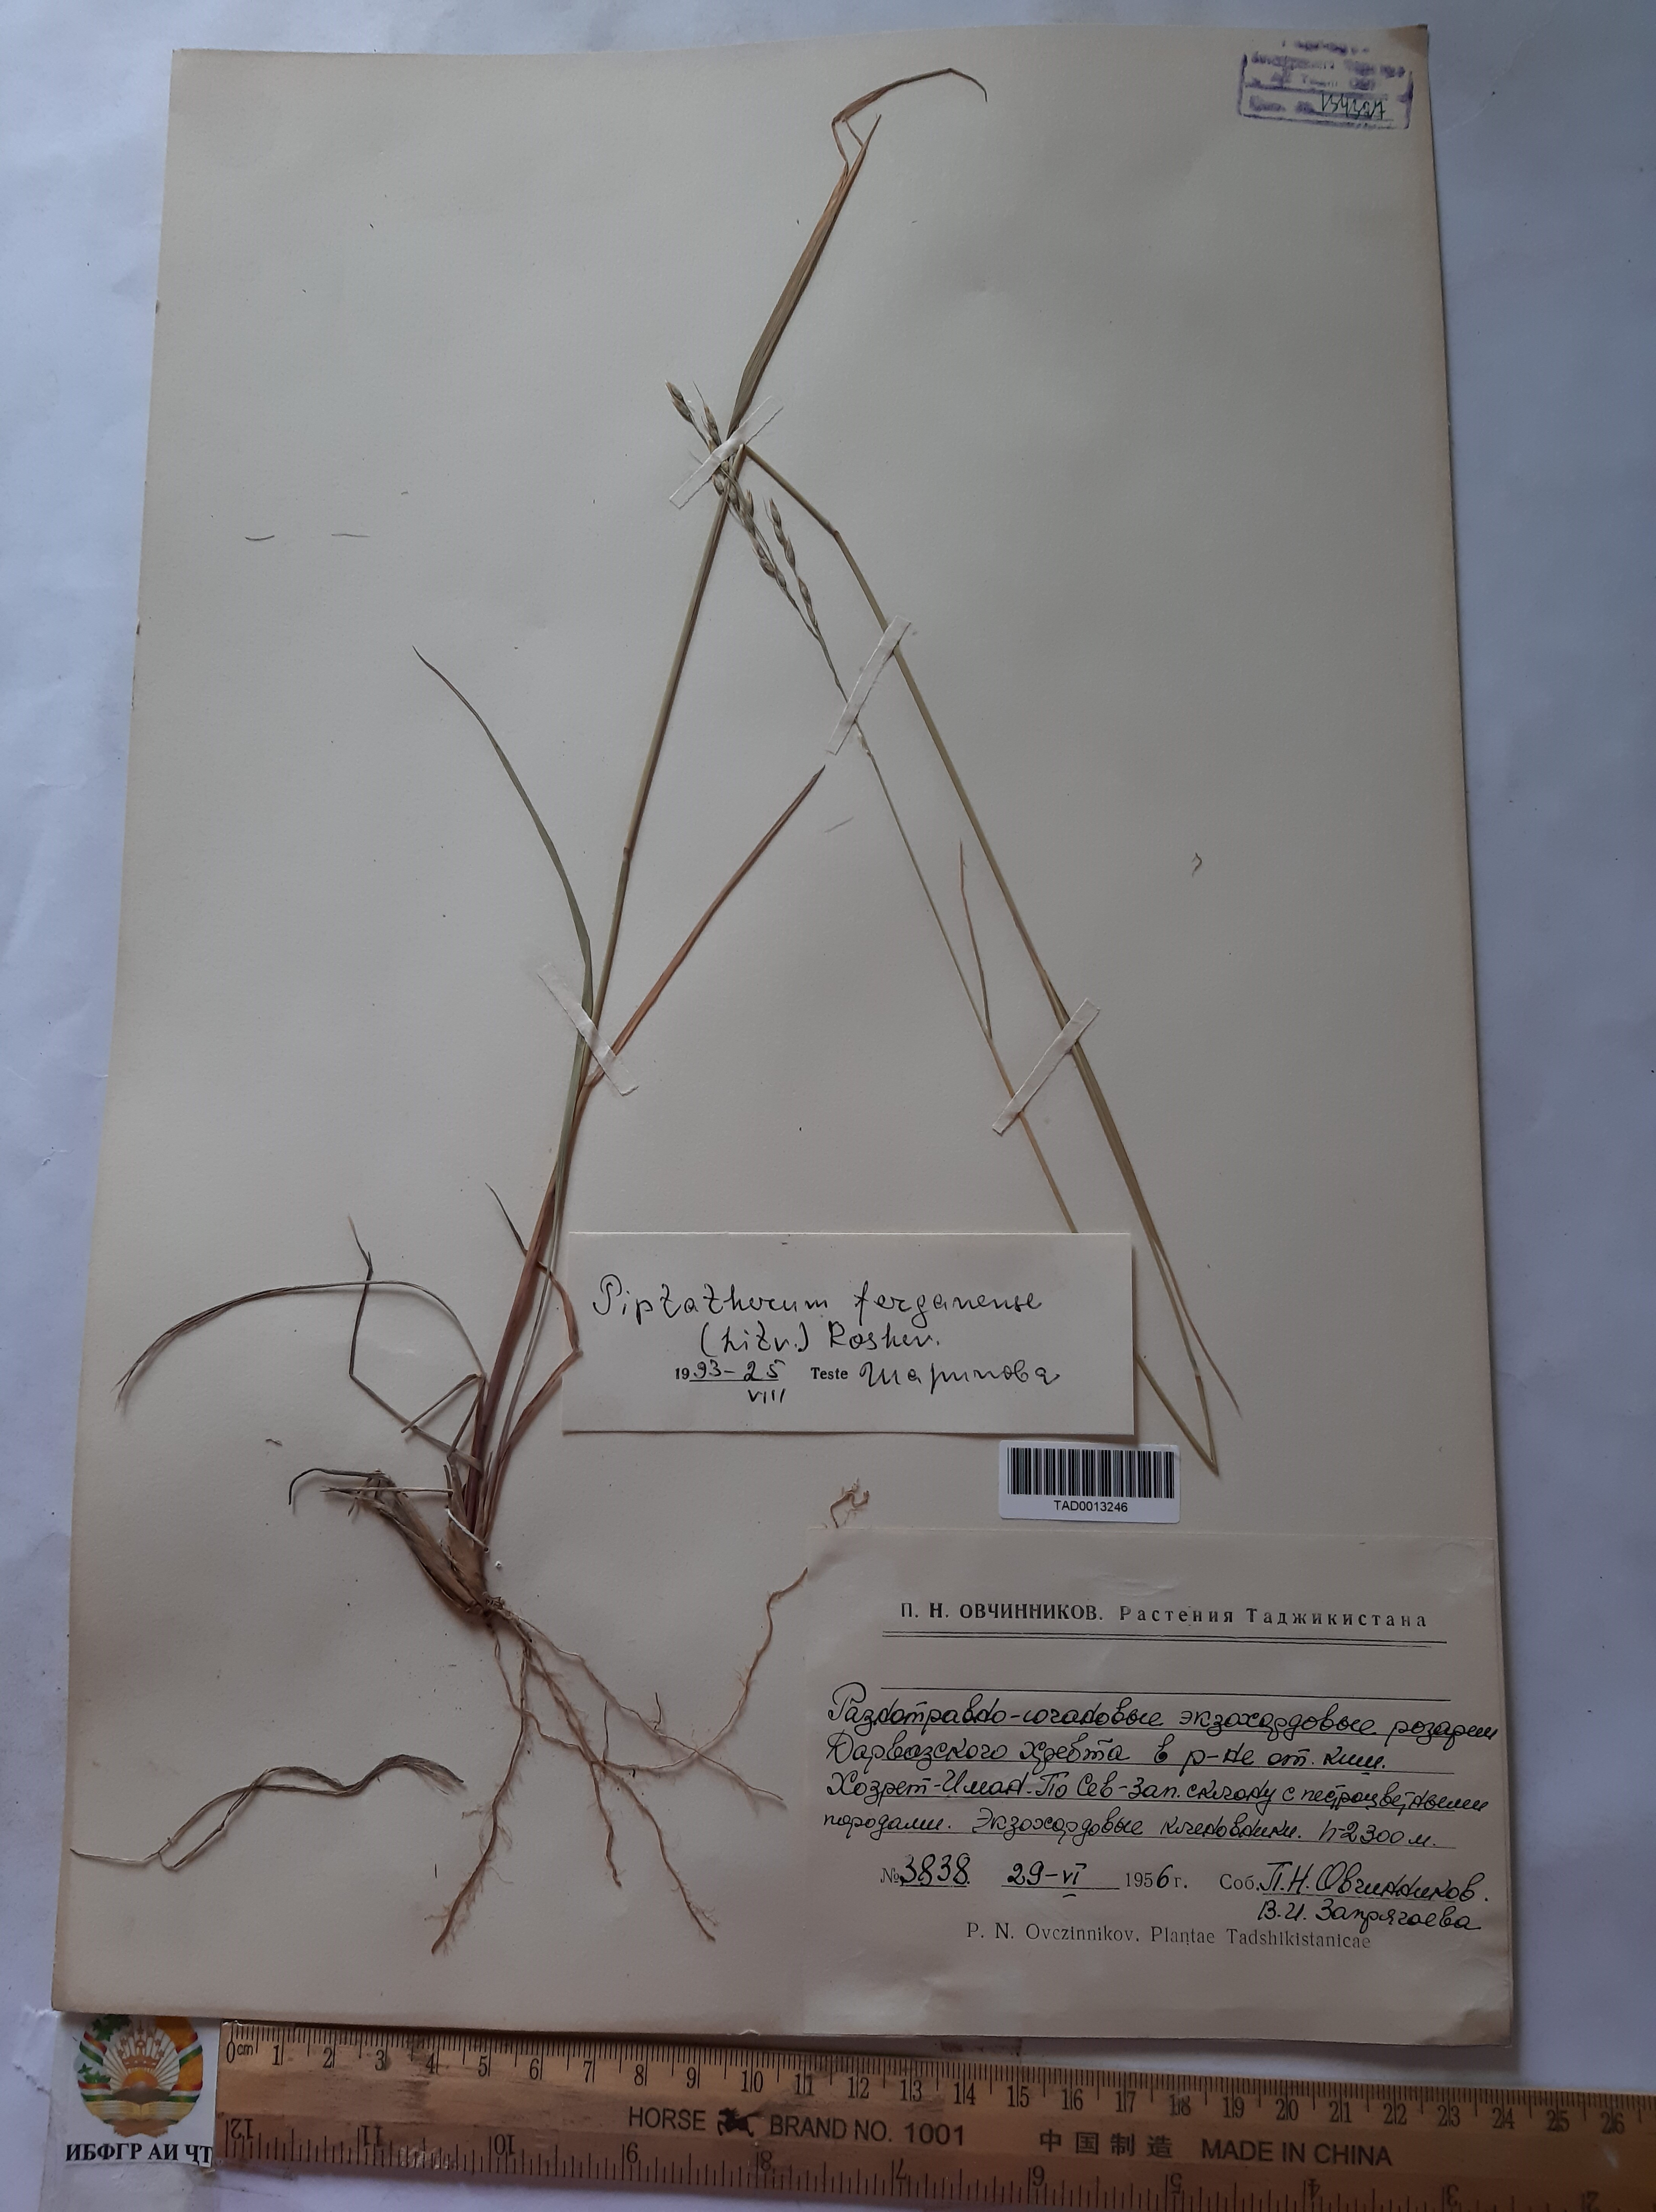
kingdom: Plantae
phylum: Tracheophyta
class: Liliopsida
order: Poales
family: Poaceae
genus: Piptatherum
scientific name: Piptatherum ferganense
